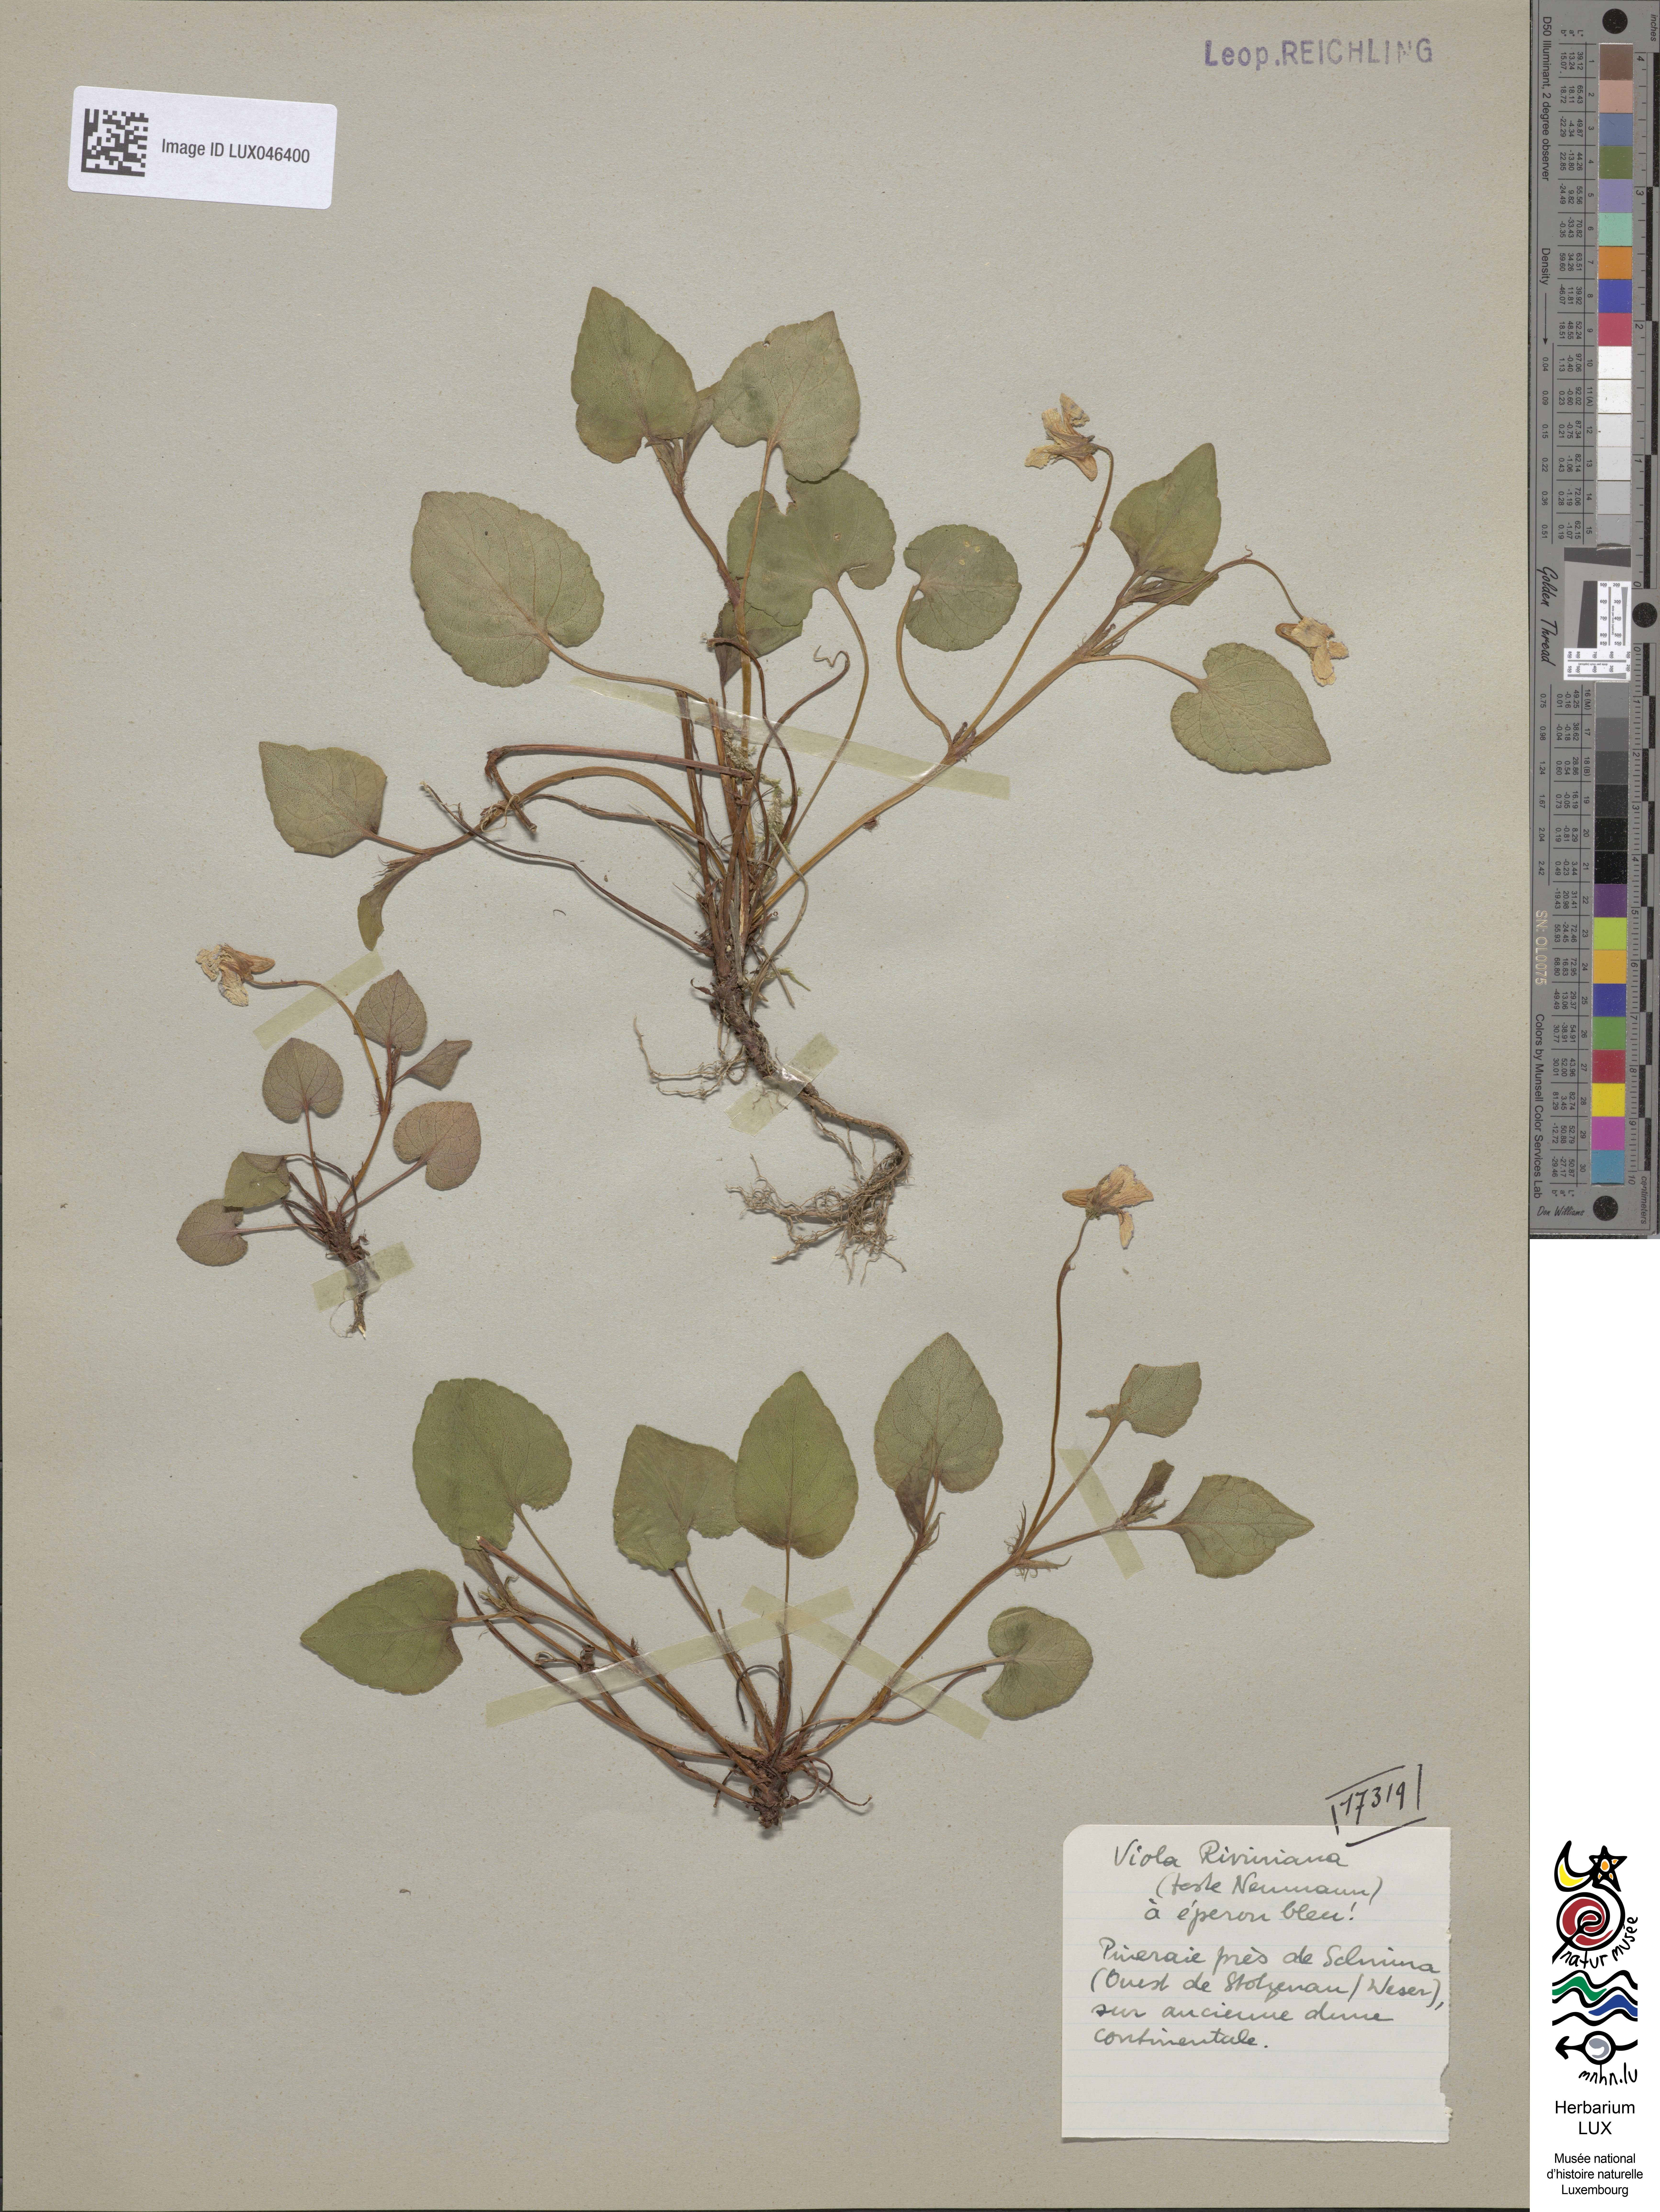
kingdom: Plantae
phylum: Tracheophyta
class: Magnoliopsida
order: Malpighiales
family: Violaceae
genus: Viola
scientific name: Viola riviniana
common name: Common dog-violet
